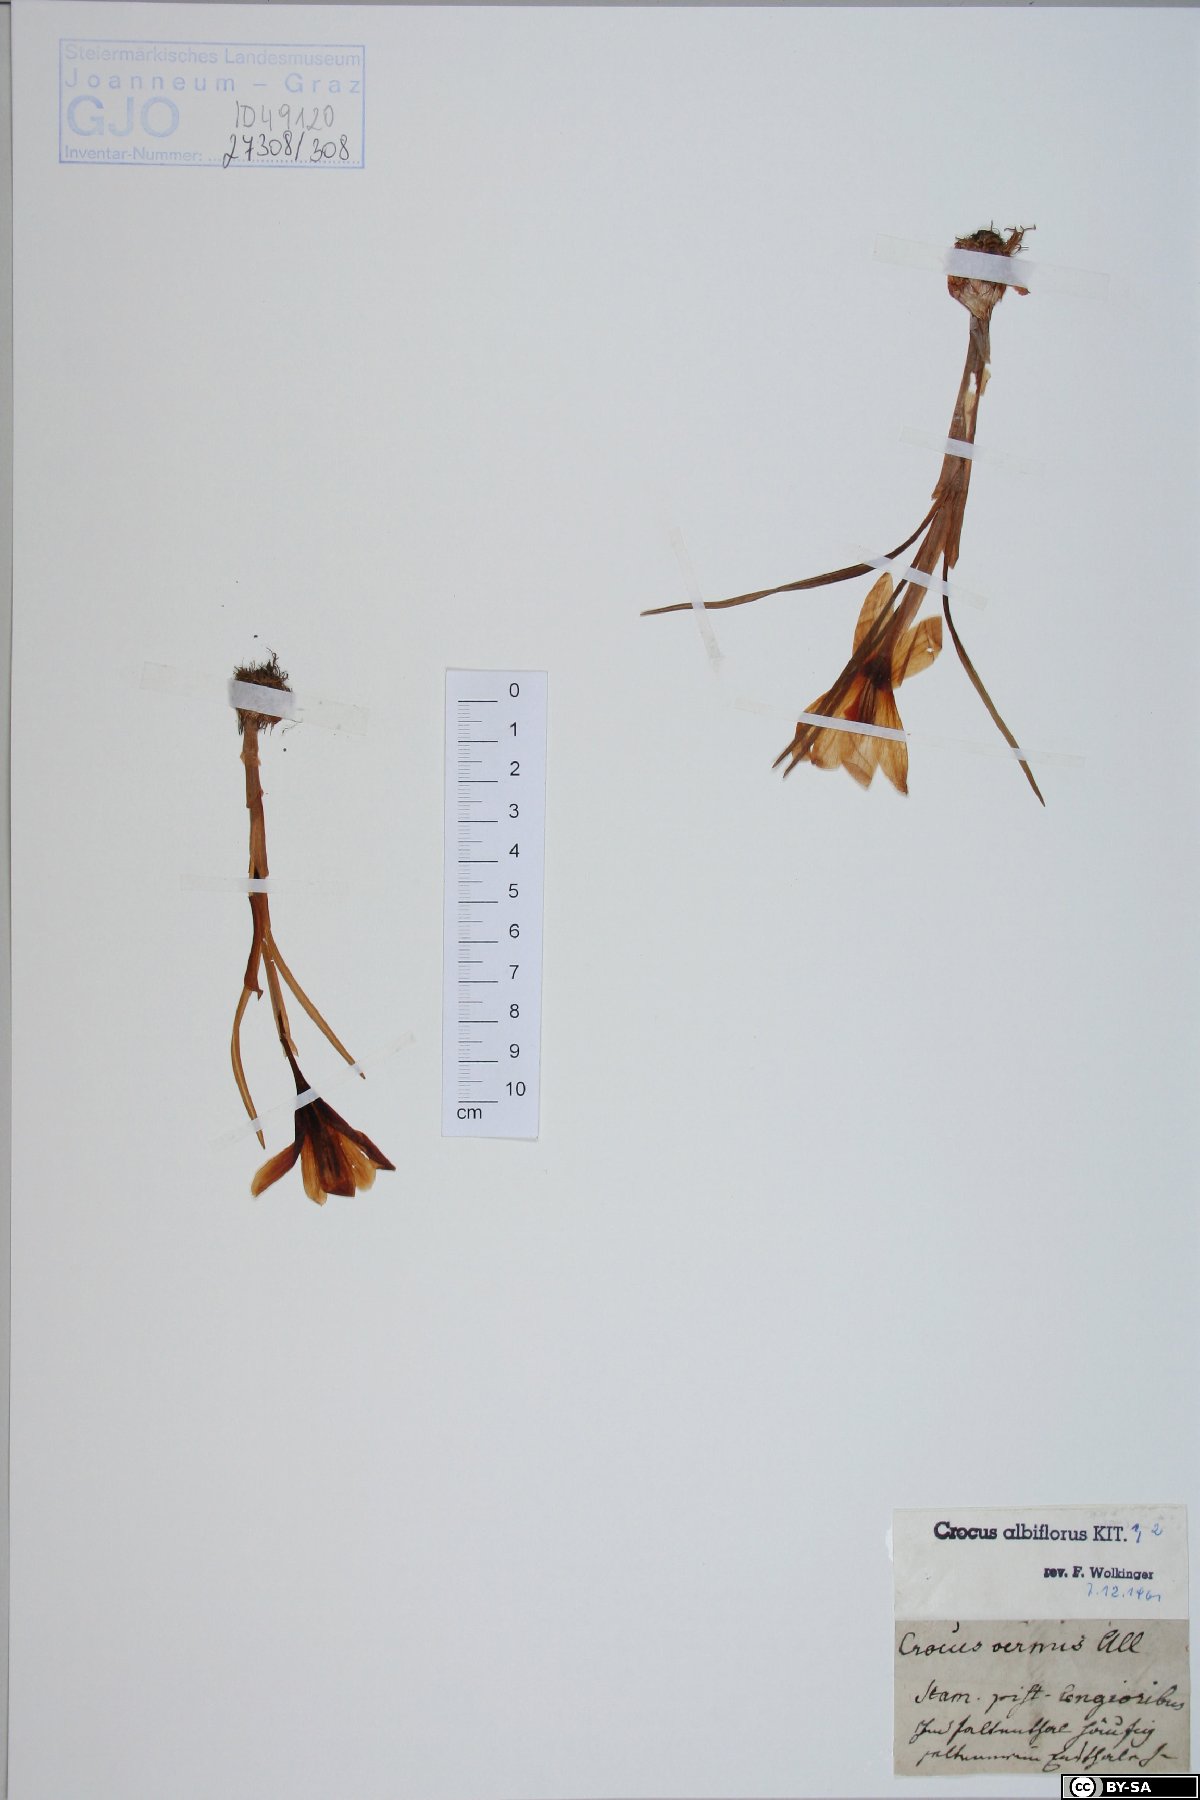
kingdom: Plantae
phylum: Tracheophyta
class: Liliopsida
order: Asparagales
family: Iridaceae
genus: Crocus
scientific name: Crocus vernus
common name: Spring crocus
